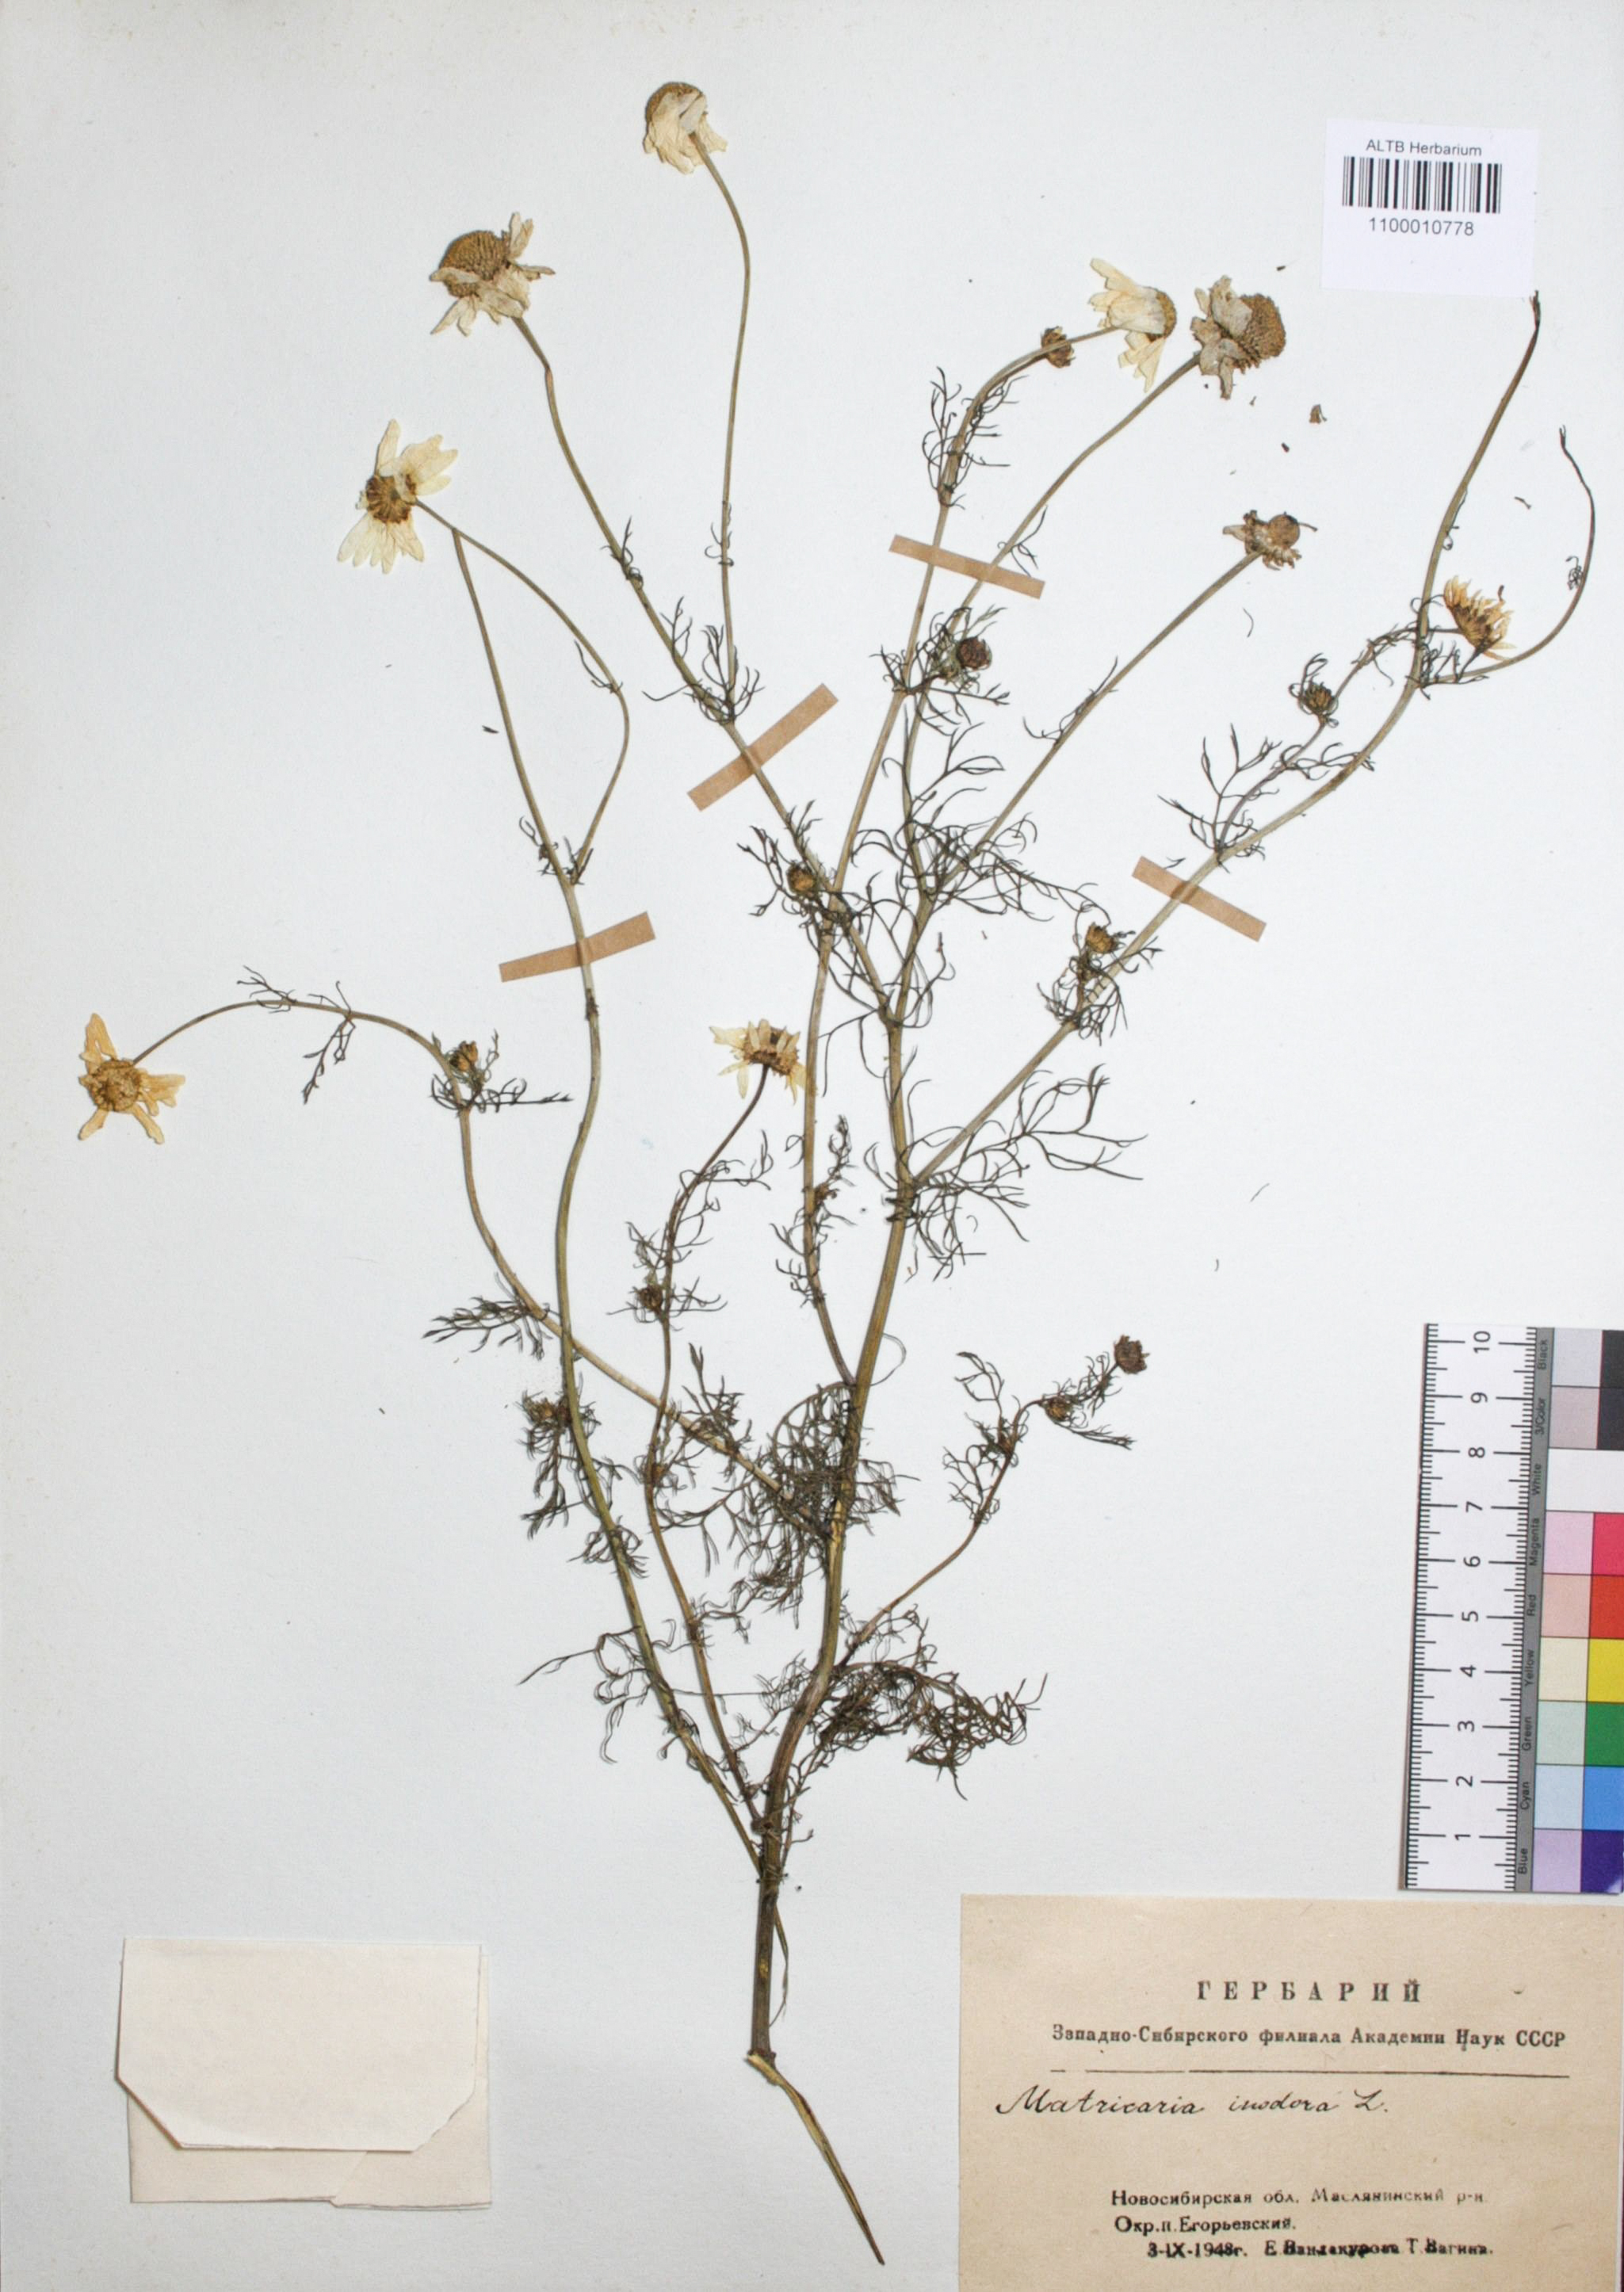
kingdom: Plantae
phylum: Tracheophyta
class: Magnoliopsida
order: Asterales
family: Asteraceae
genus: Tripleurospermum
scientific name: Tripleurospermum inodorum
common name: Scentless mayweed
